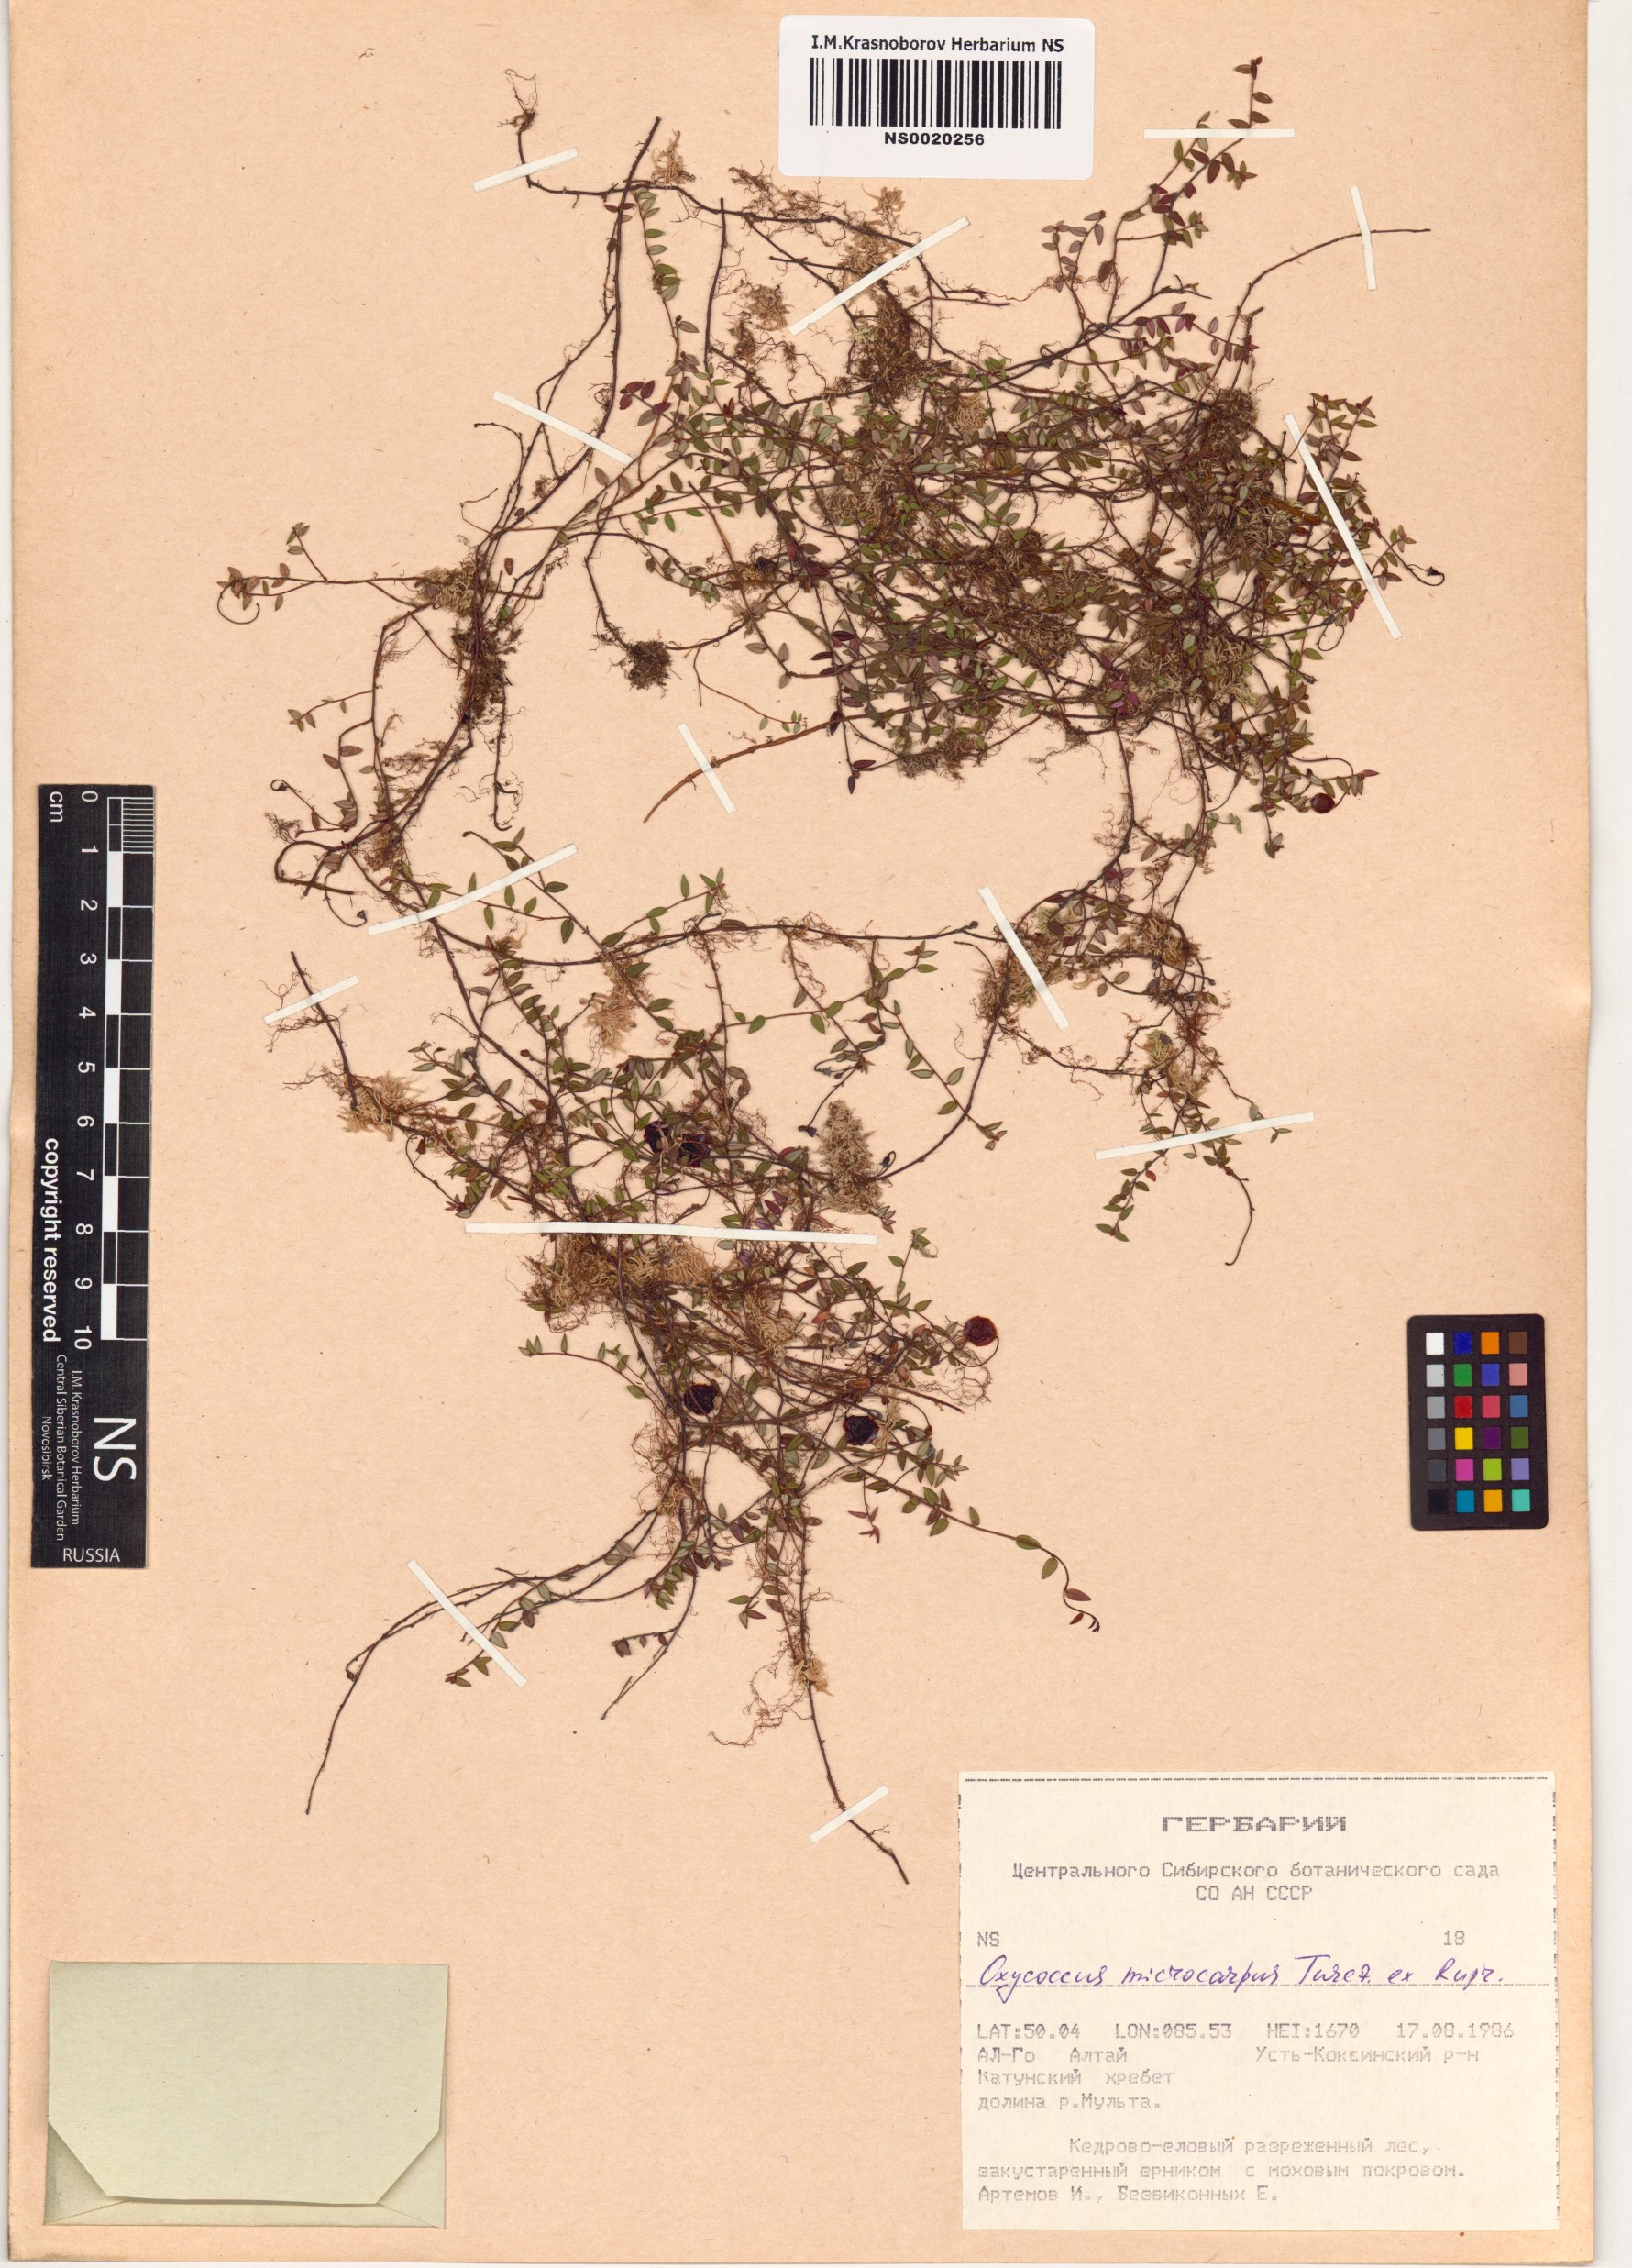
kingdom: Plantae
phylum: Tracheophyta
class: Magnoliopsida
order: Ericales
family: Ericaceae
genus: Vaccinium
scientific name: Vaccinium microcarpum
